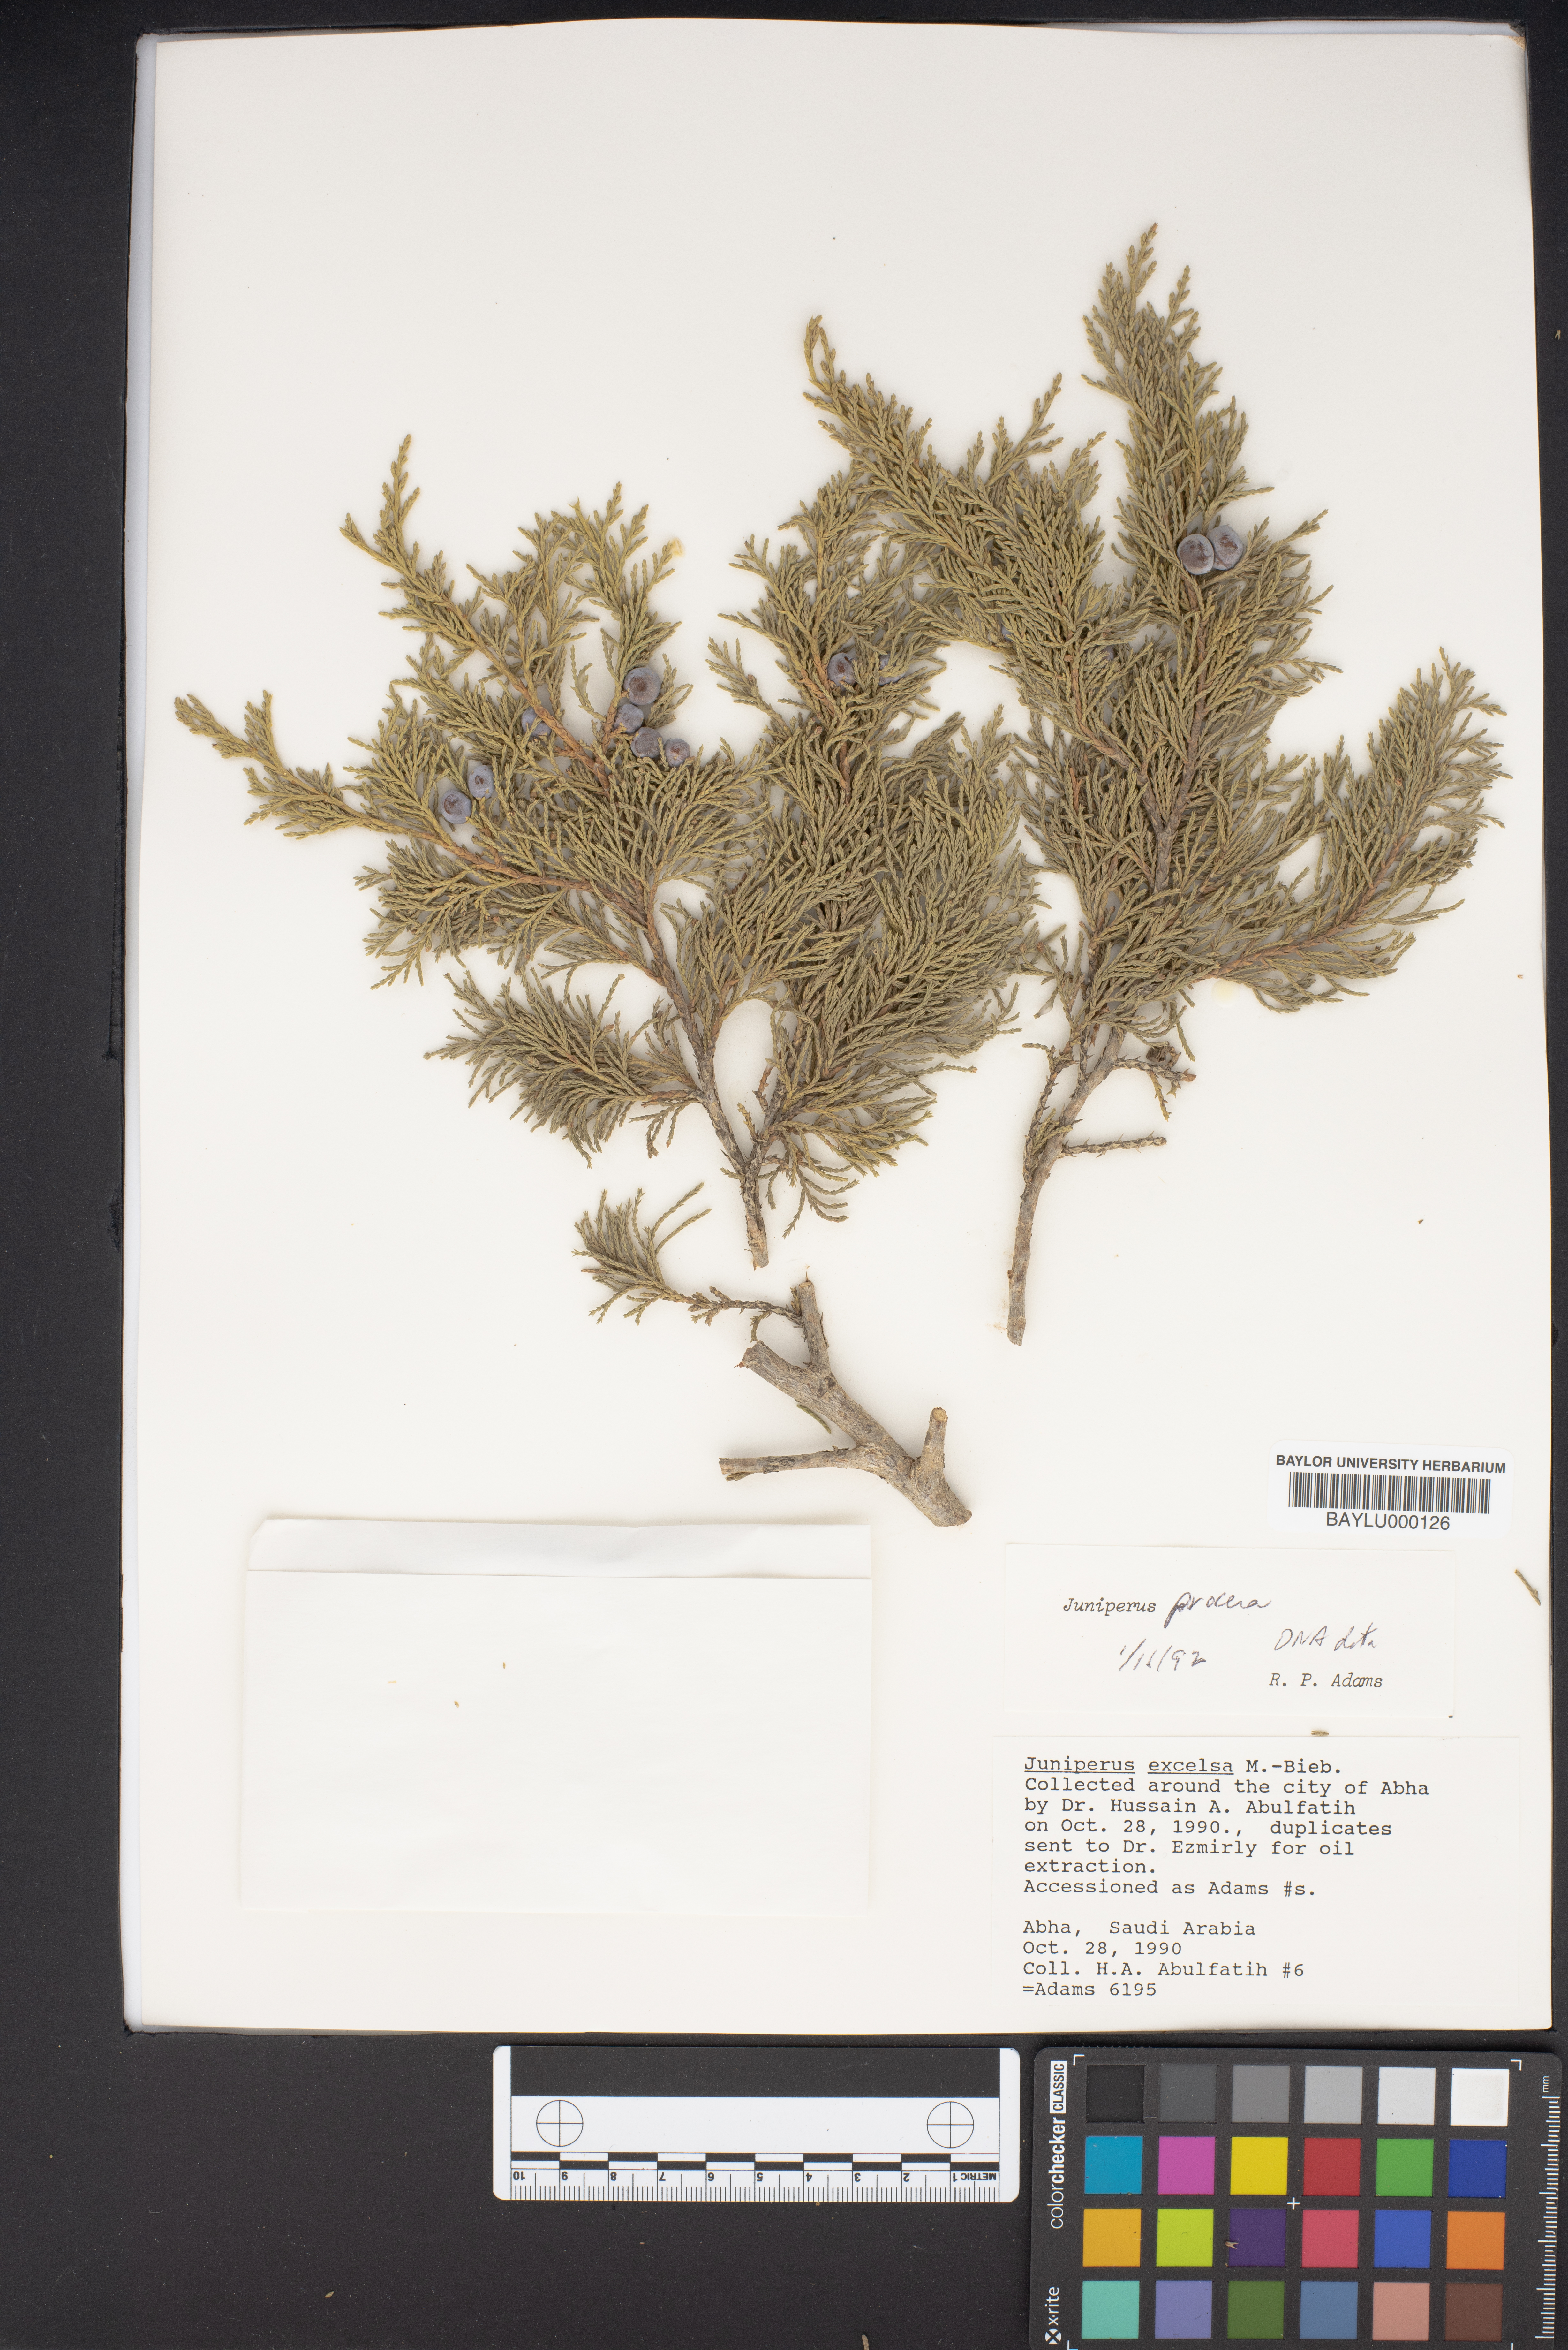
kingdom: Plantae
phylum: Tracheophyta
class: Pinopsida
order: Pinales
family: Cupressaceae
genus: Juniperus
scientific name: Juniperus excelsa
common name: Crimean juniper
